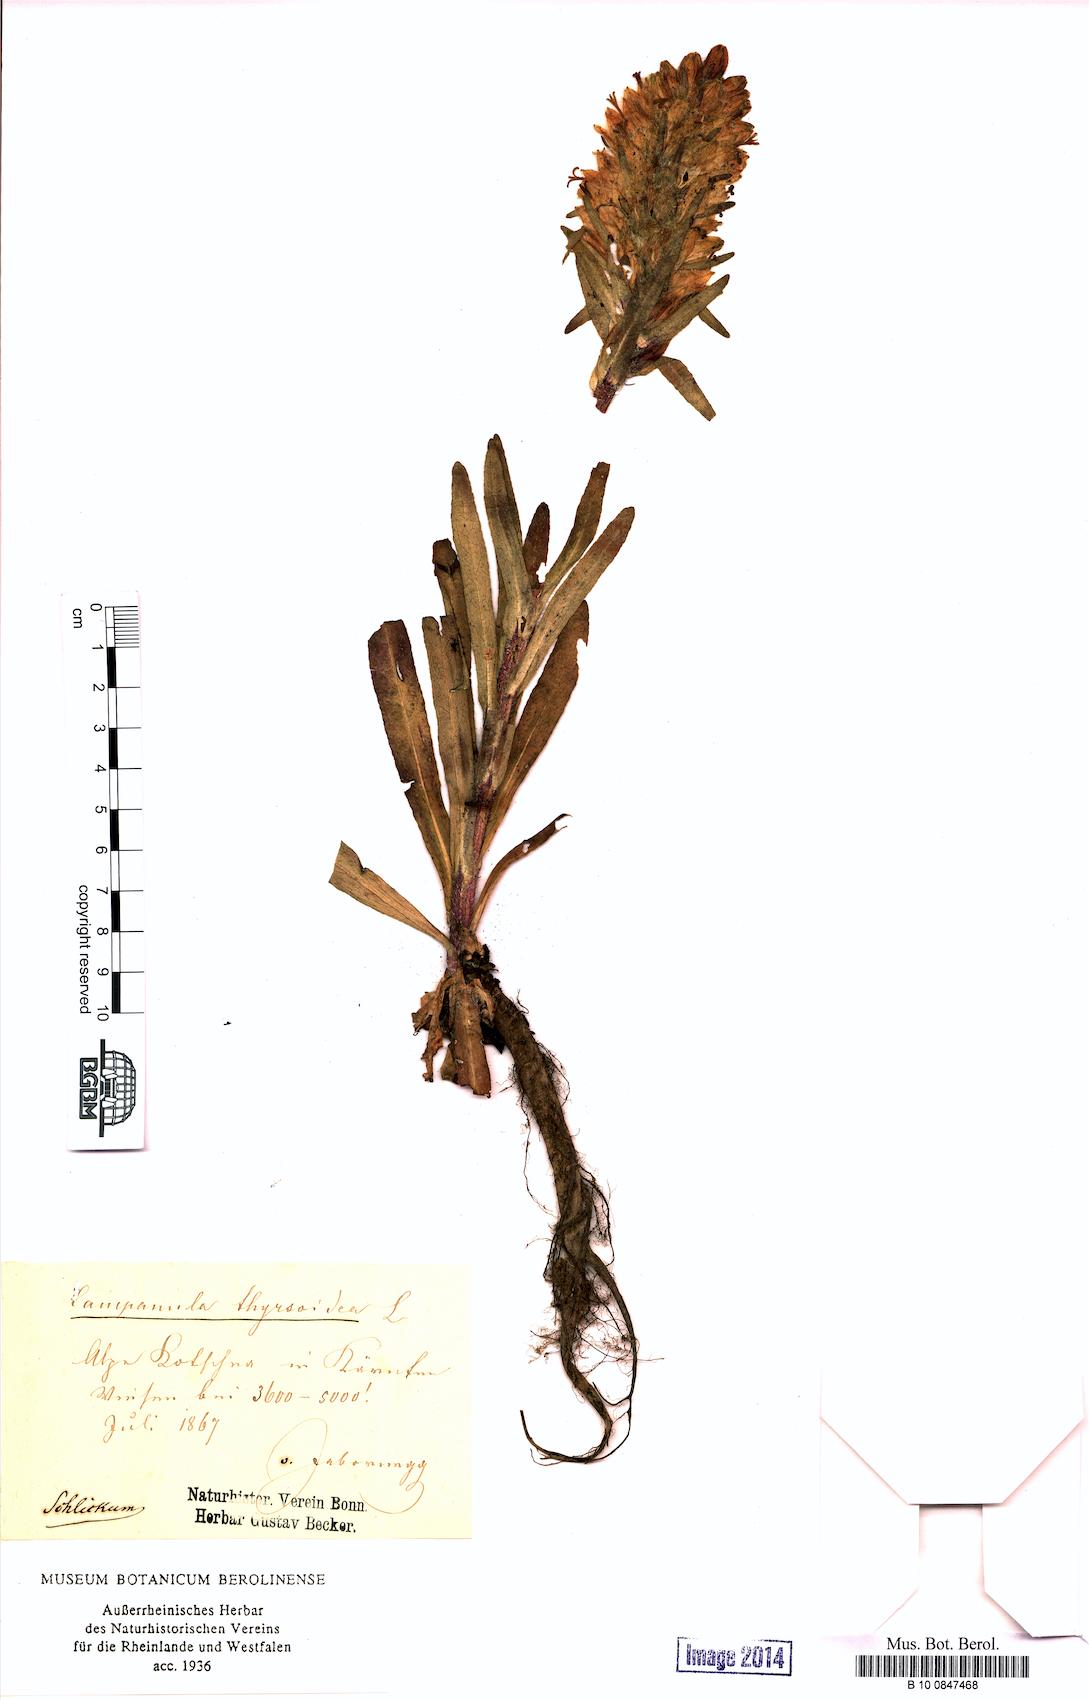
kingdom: Plantae
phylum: Tracheophyta
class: Magnoliopsida
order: Asterales
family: Campanulaceae
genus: Campanula
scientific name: Campanula thyrsoides
